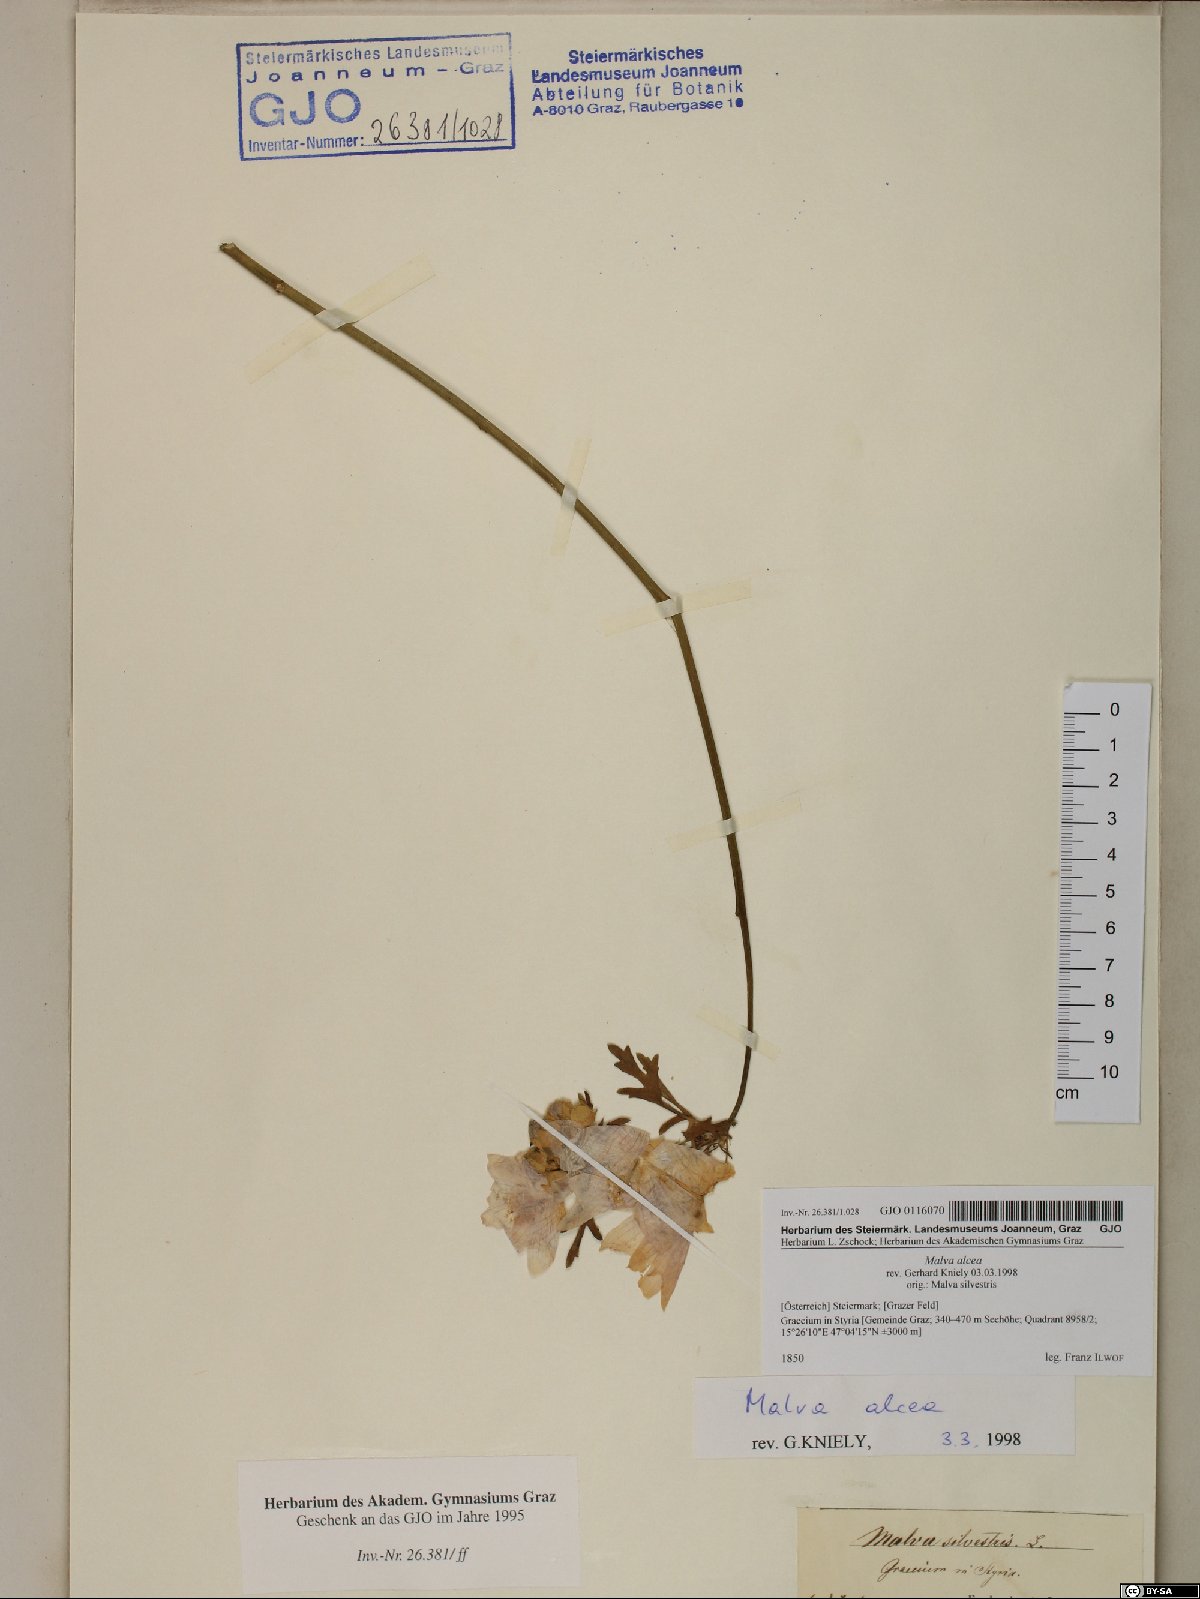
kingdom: Plantae
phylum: Tracheophyta
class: Magnoliopsida
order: Malvales
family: Malvaceae
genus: Malva
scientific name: Malva alcea
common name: Greater musk-mallow
